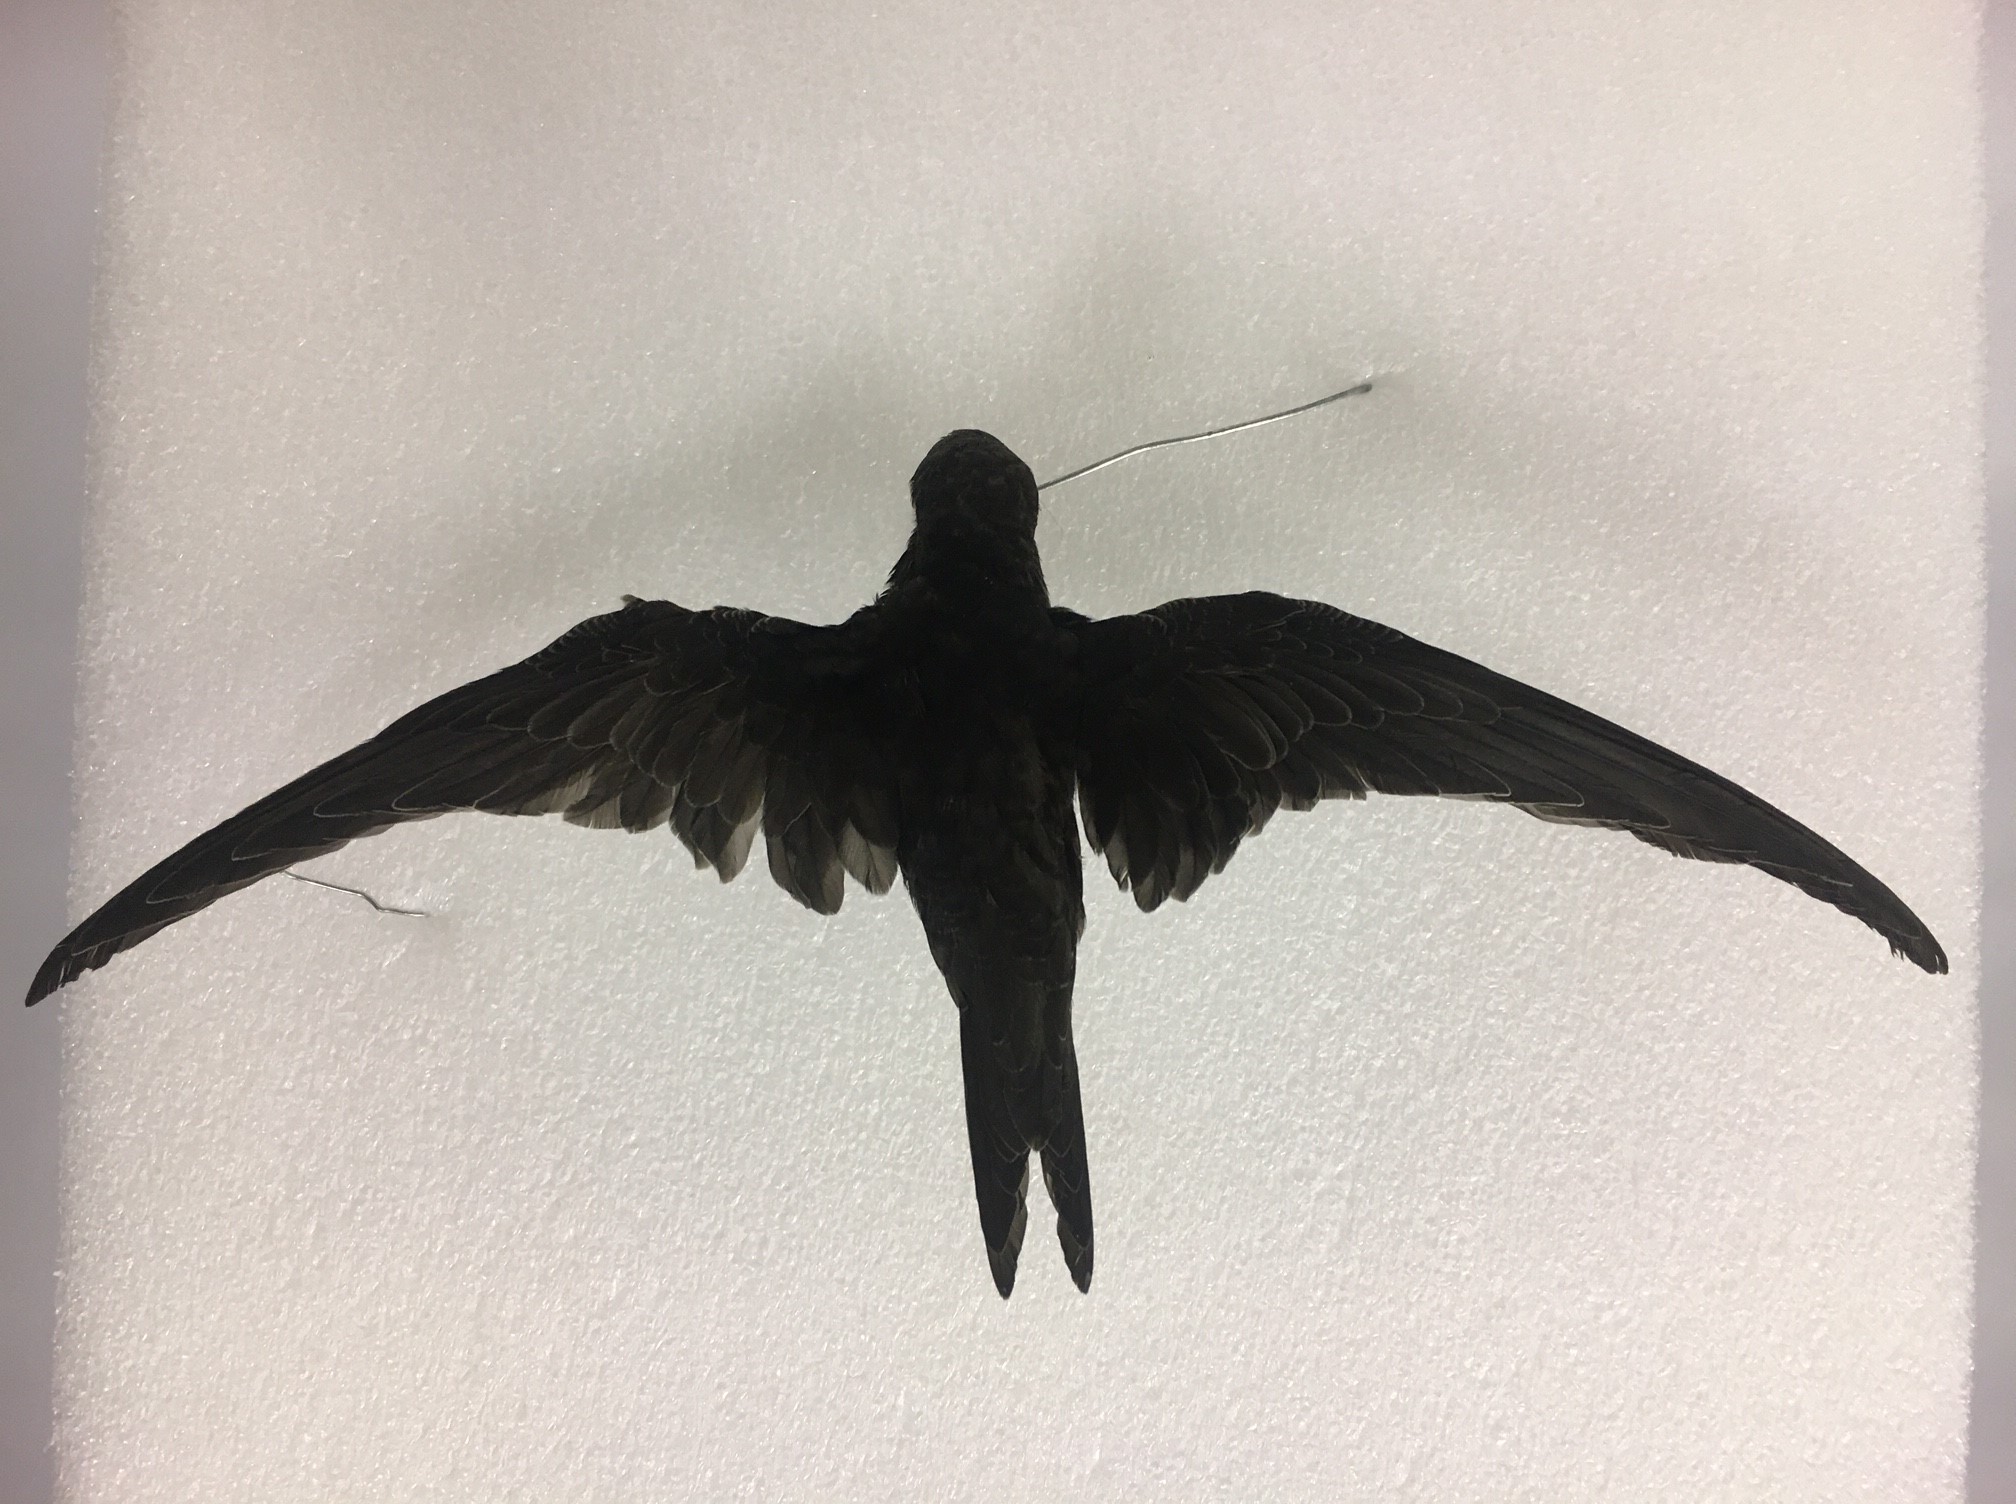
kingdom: Animalia
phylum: Chordata
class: Aves
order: Apodiformes
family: Apodidae
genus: Apus
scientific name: Apus apus
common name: Common swift
